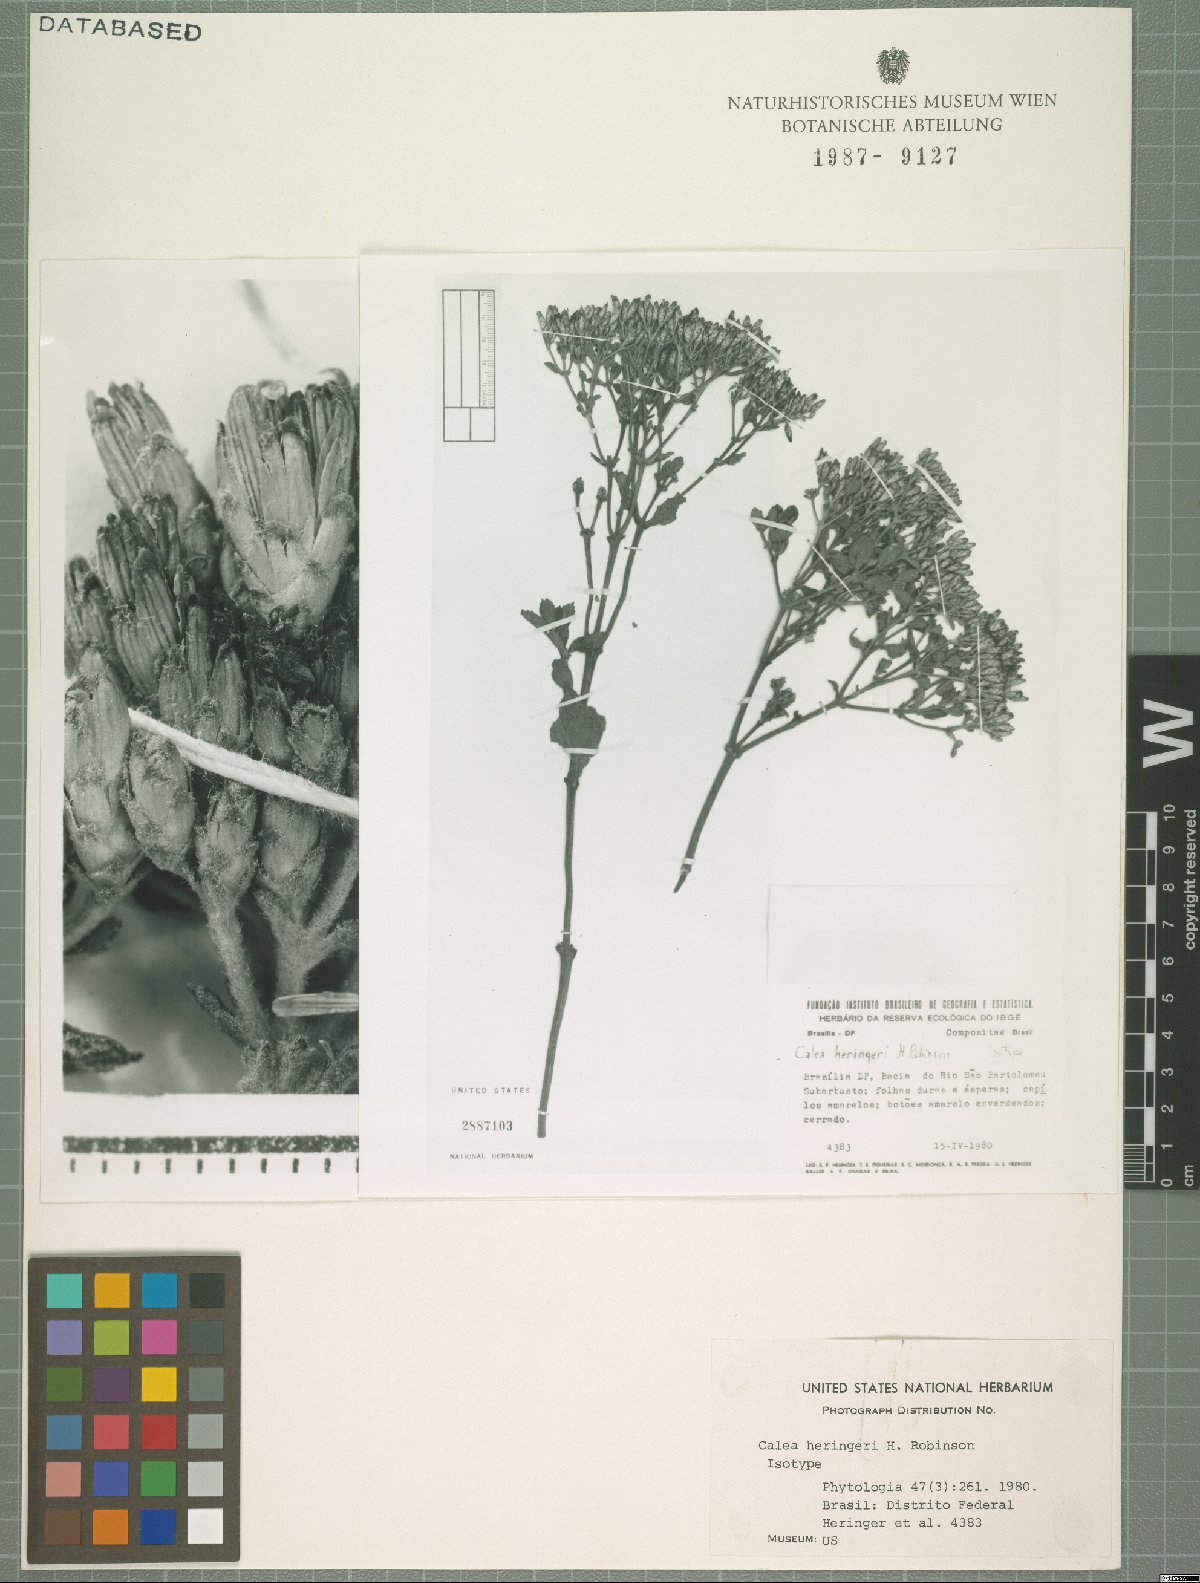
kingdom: Plantae
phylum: Tracheophyta
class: Magnoliopsida
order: Asterales
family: Asteraceae
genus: Calea
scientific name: Calea fruticosa
